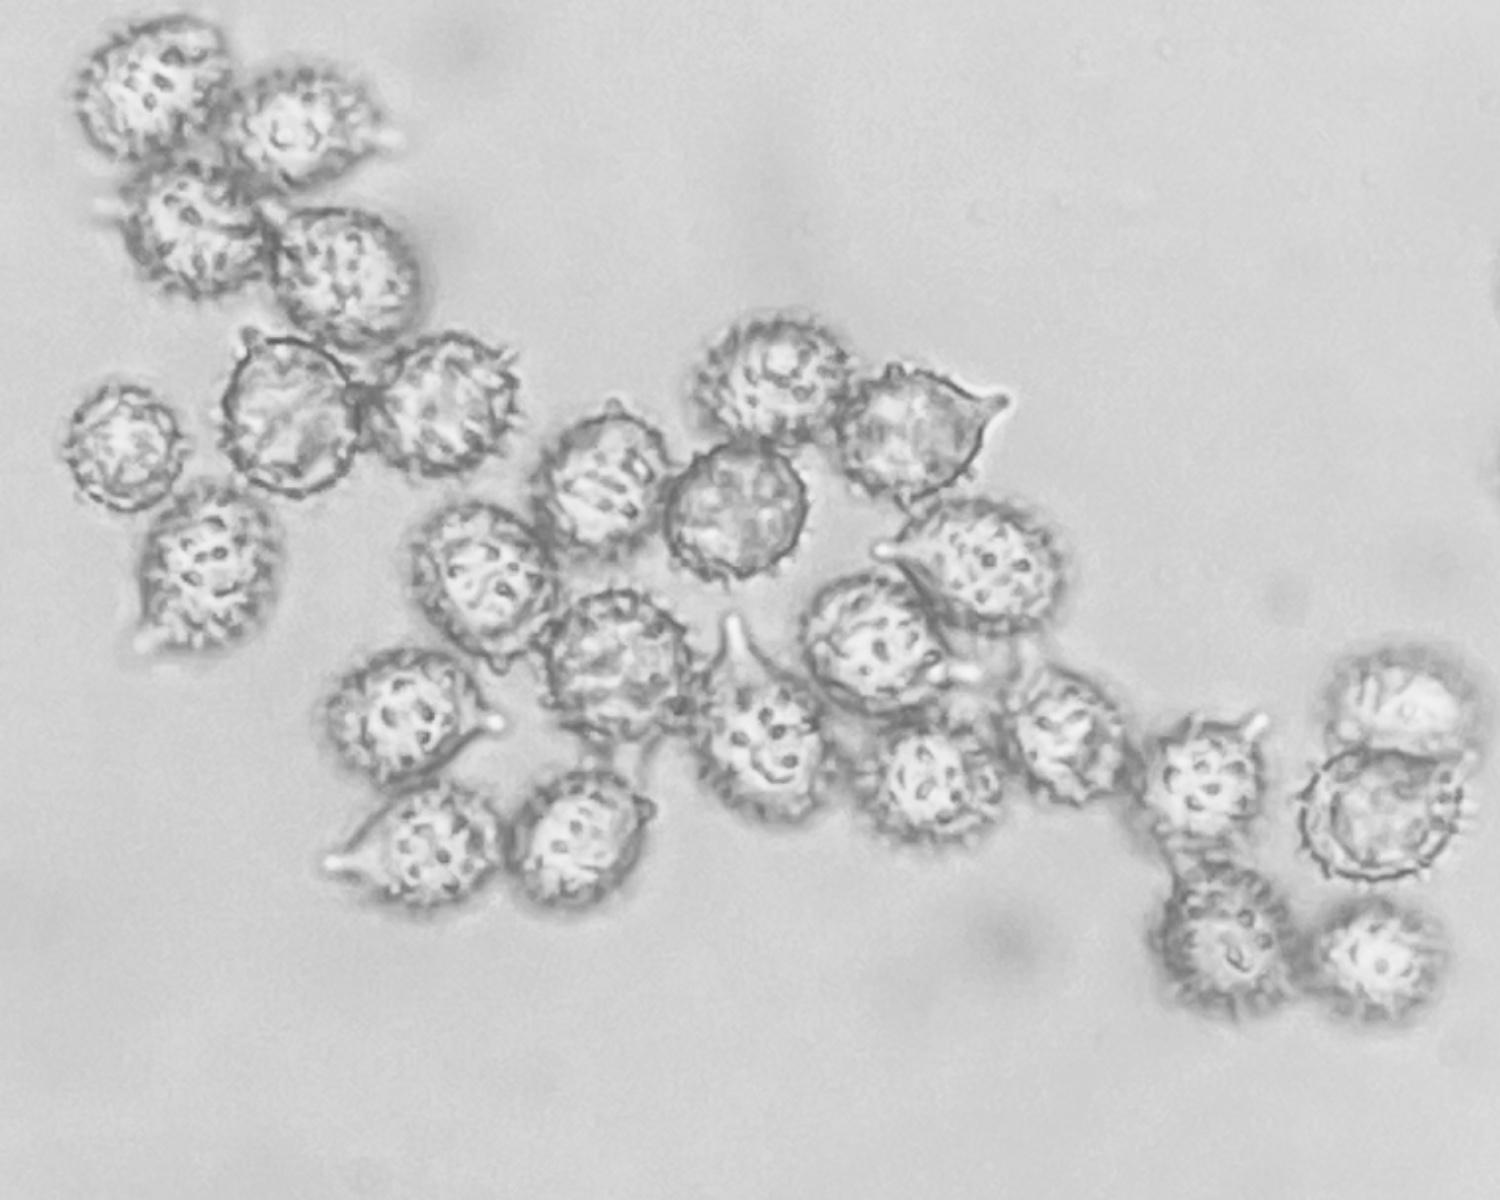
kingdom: Fungi
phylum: Basidiomycota
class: Agaricomycetes
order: Russulales
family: Russulaceae
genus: Russula
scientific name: Russula nitida
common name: året skørhat
